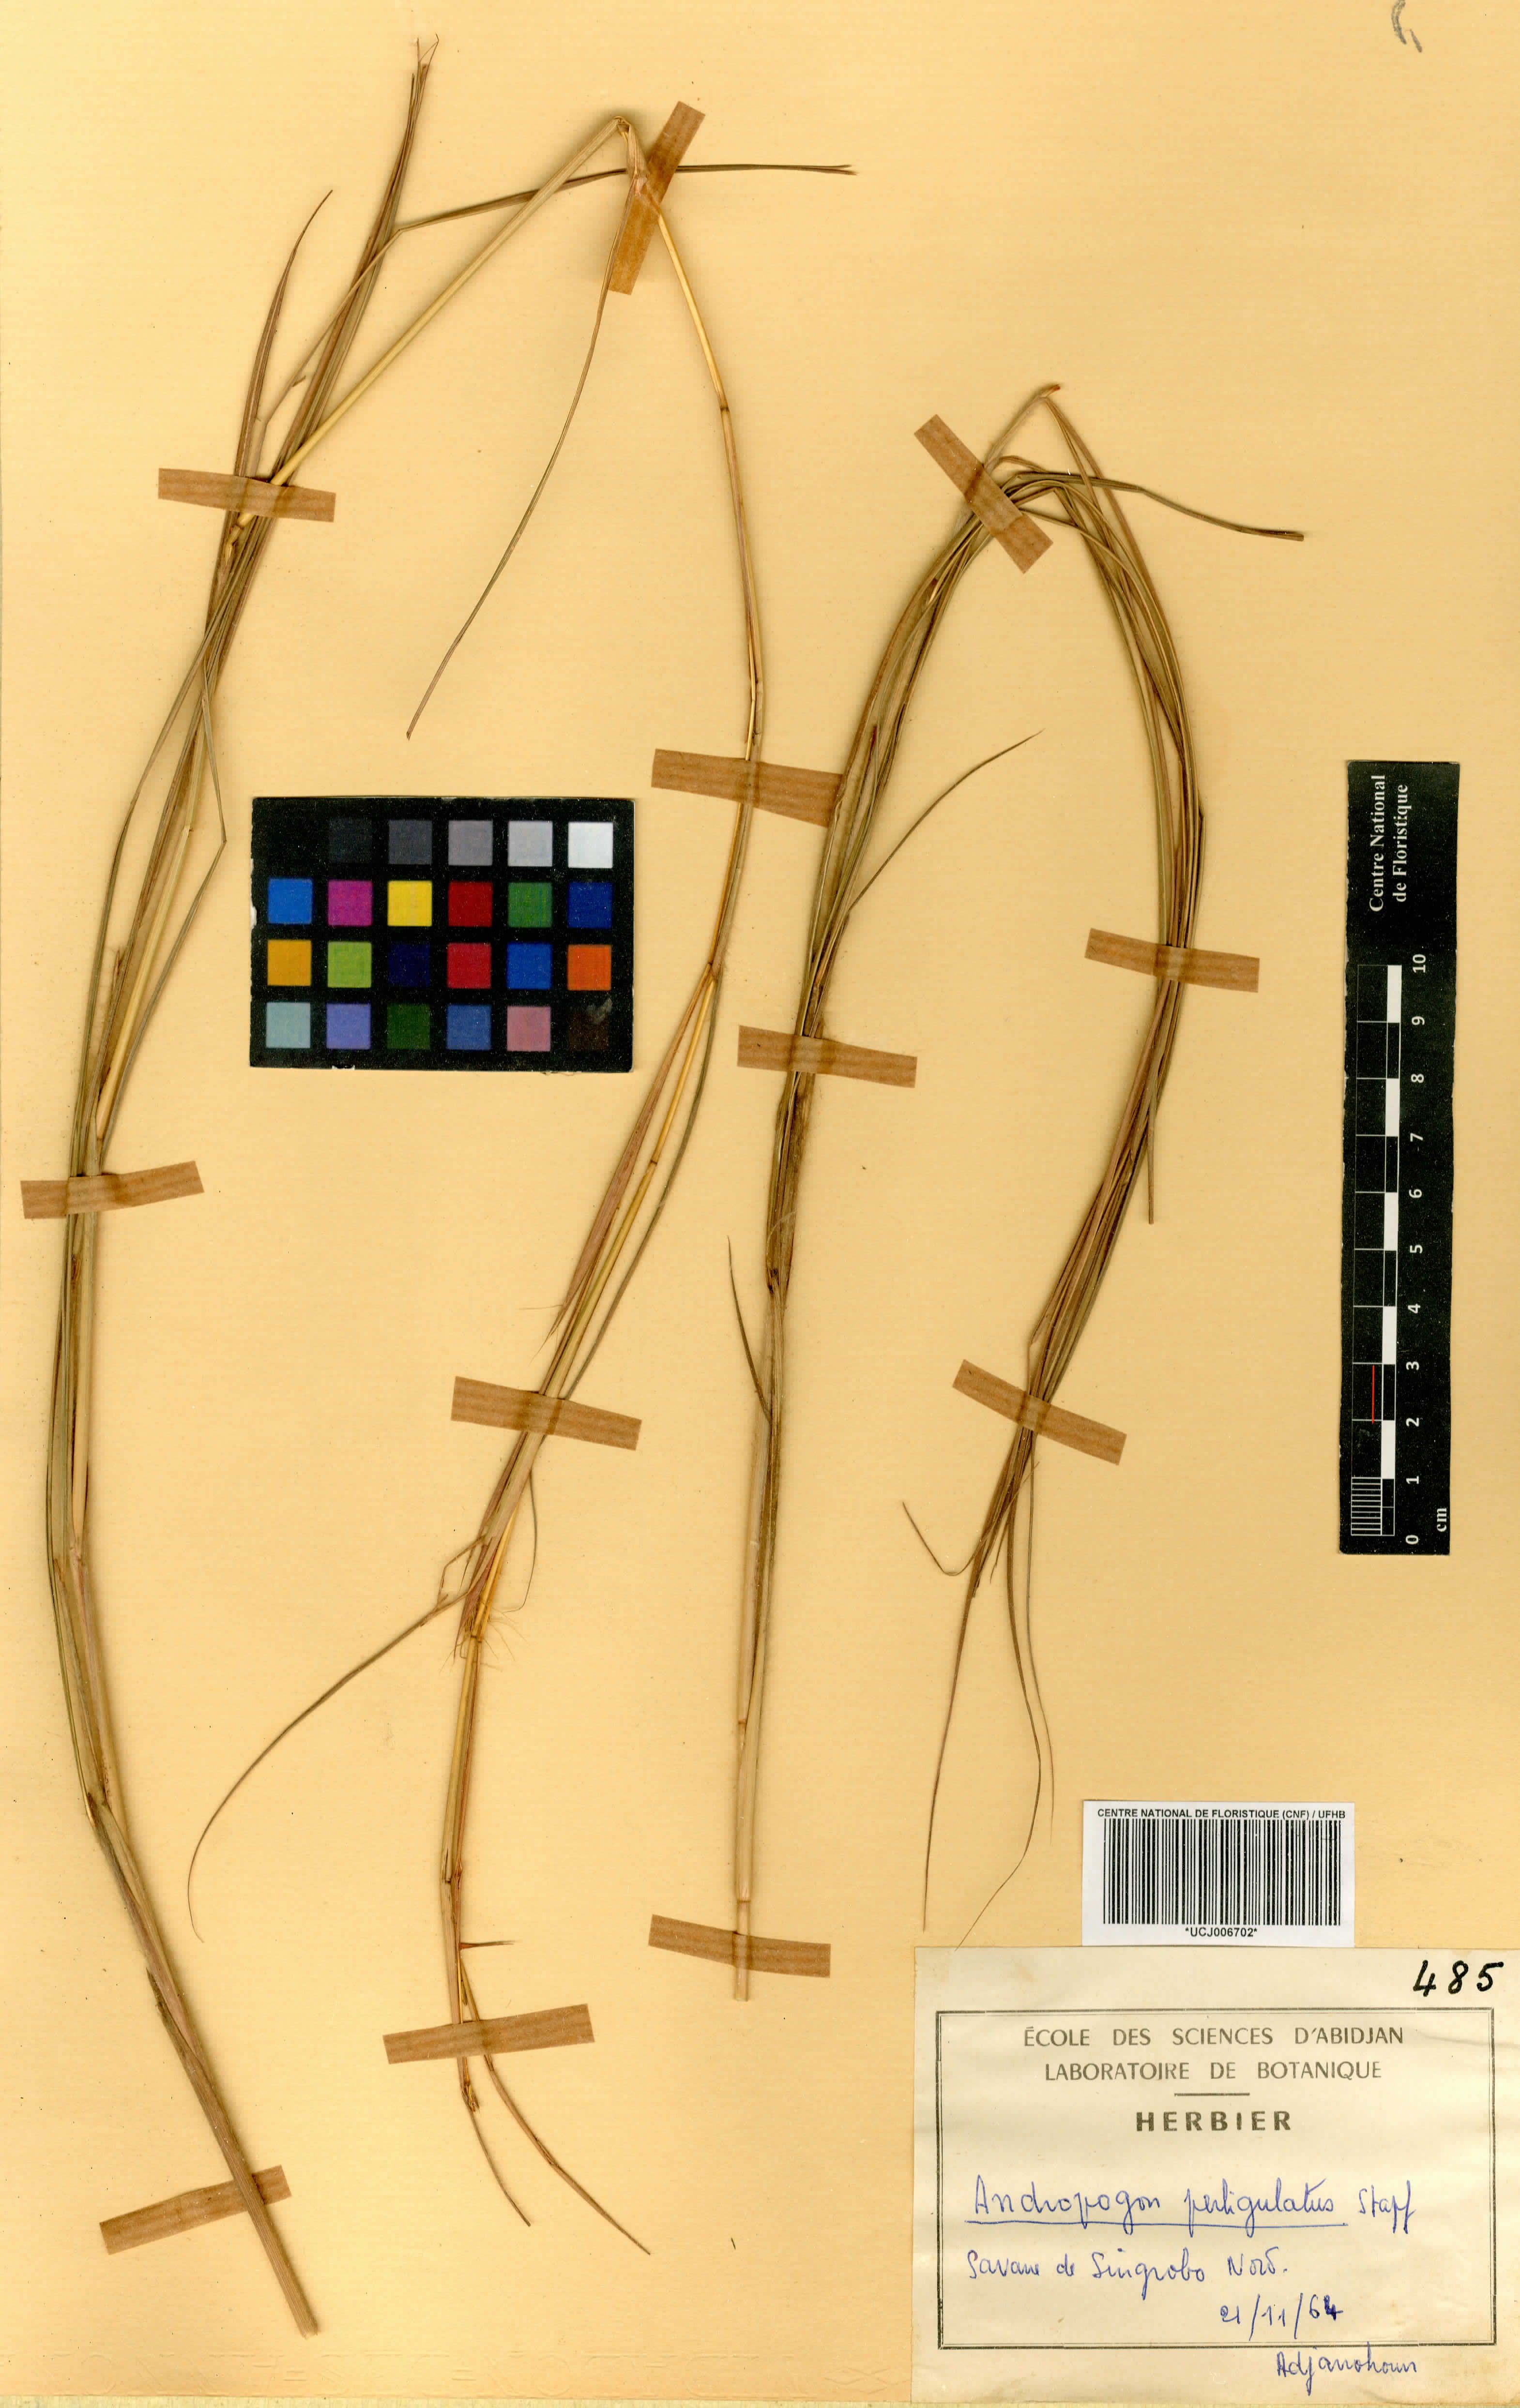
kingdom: Plantae
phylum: Tracheophyta
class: Liliopsida
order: Poales
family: Poaceae
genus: Andropogon
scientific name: Andropogon perligulatus
